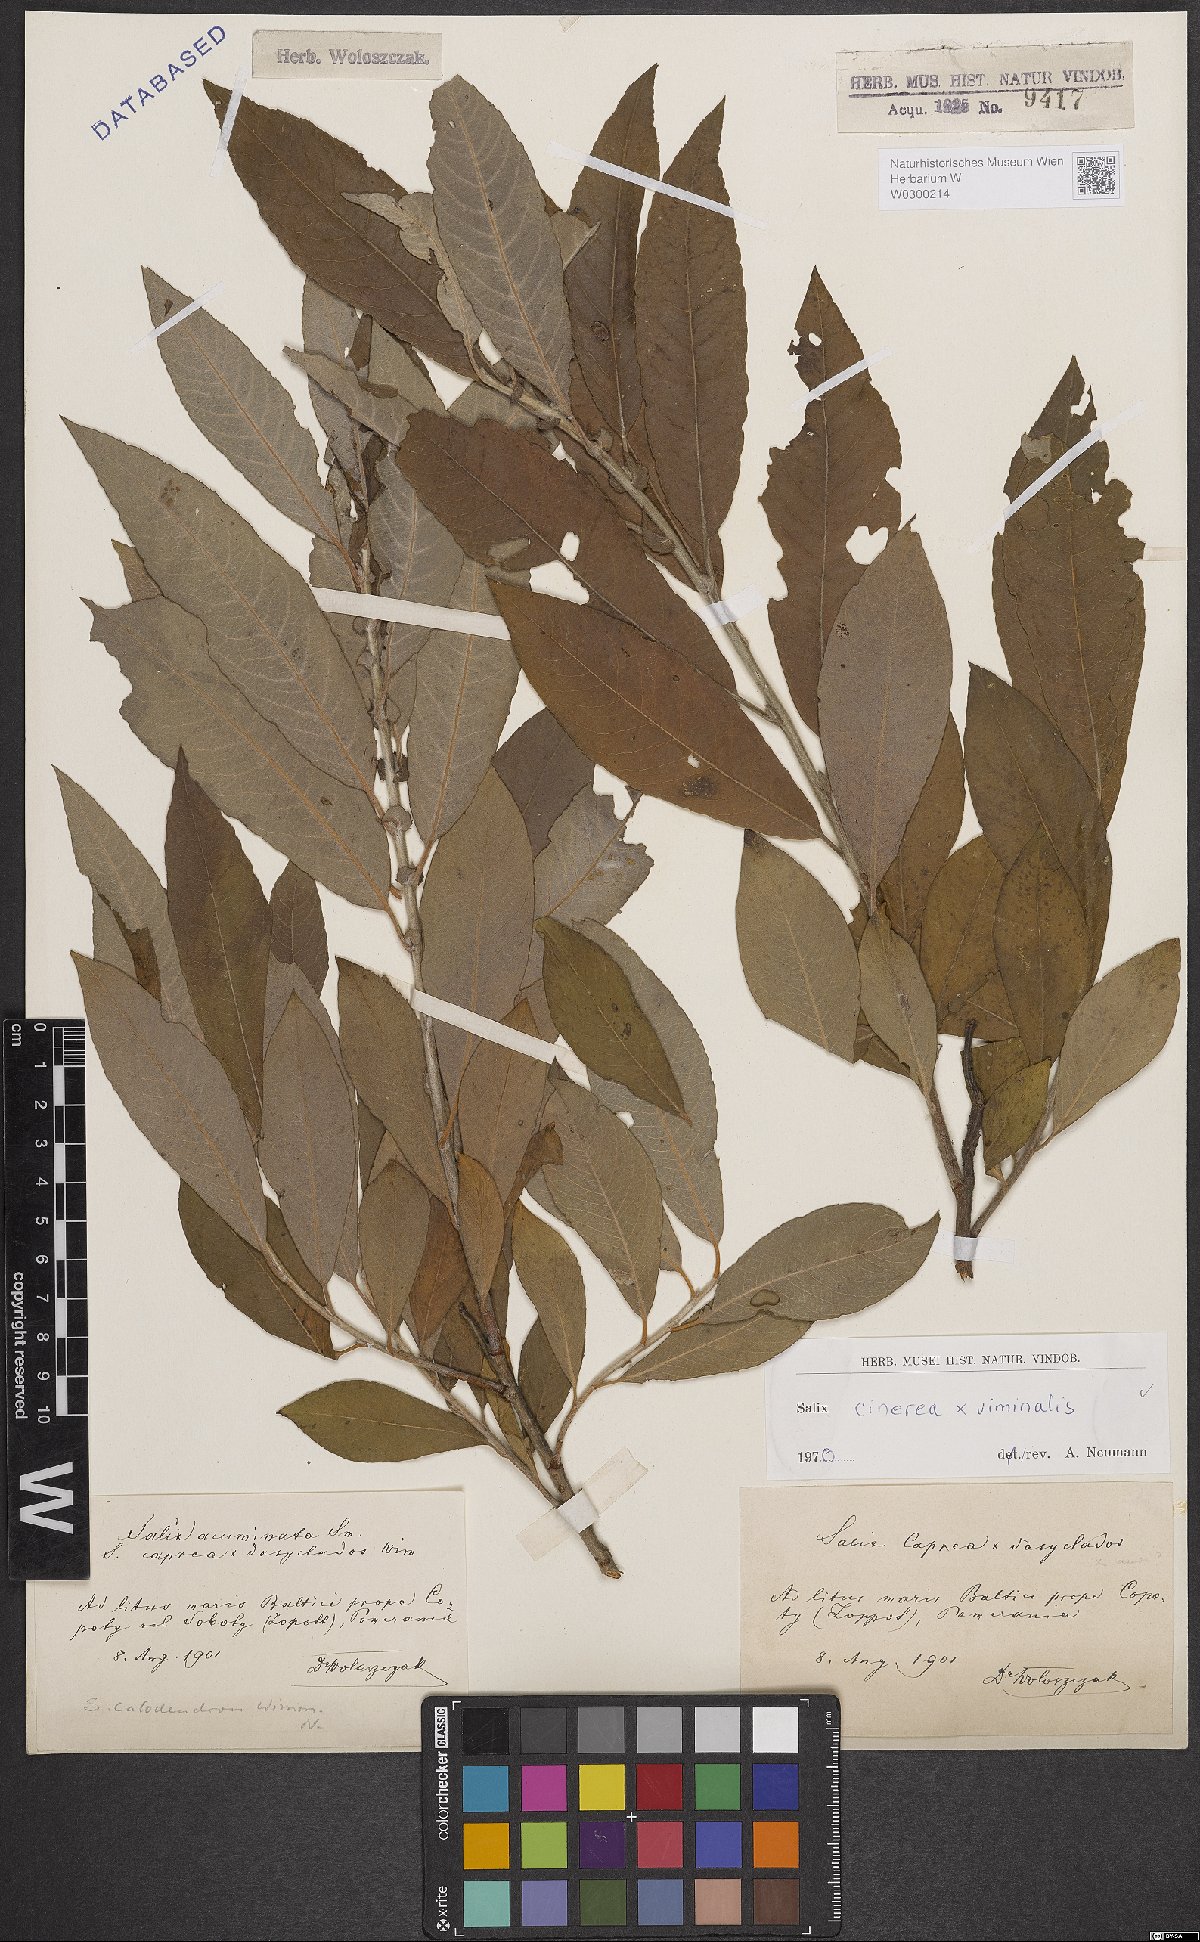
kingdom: Plantae
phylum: Tracheophyta
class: Magnoliopsida
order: Malpighiales
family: Salicaceae
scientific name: Salicaceae
